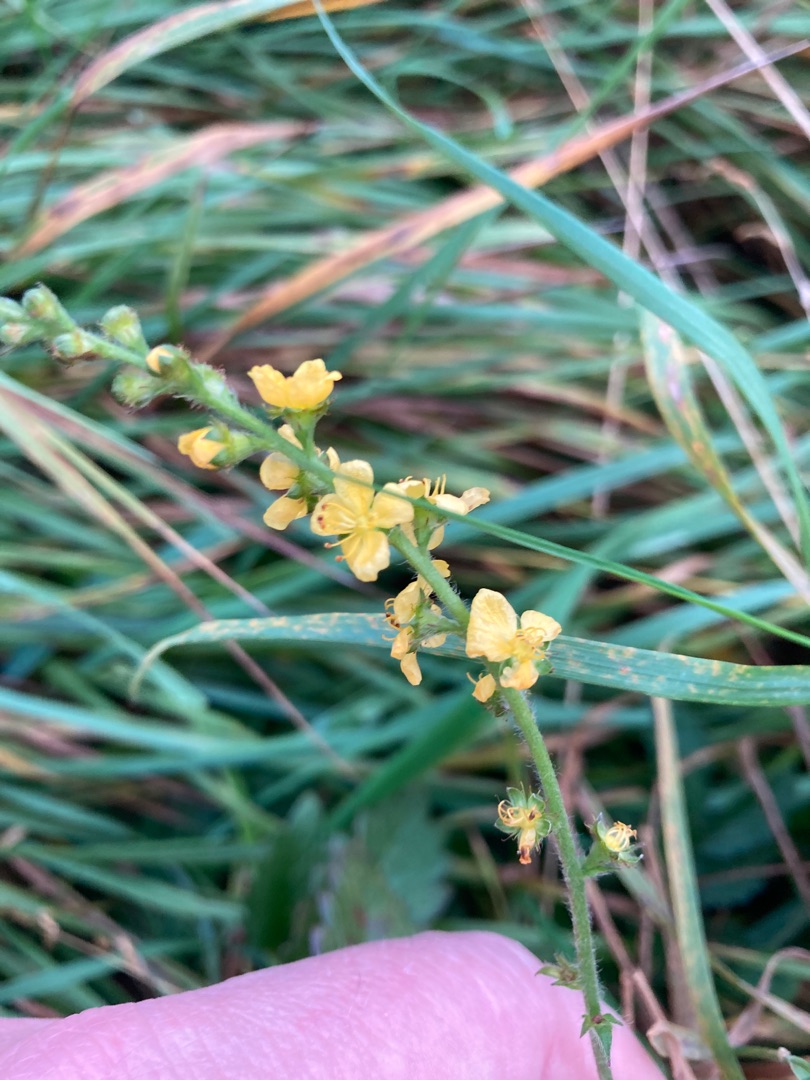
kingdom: Plantae
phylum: Tracheophyta
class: Magnoliopsida
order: Rosales
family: Rosaceae
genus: Agrimonia
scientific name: Agrimonia eupatoria
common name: Almindelig agermåne
